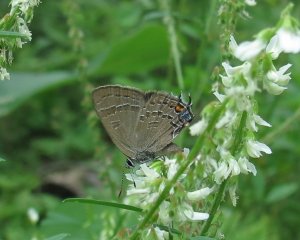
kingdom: Animalia
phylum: Arthropoda
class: Insecta
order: Lepidoptera
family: Lycaenidae
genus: Satyrium
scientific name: Satyrium calanus
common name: Banded Hairstreak
